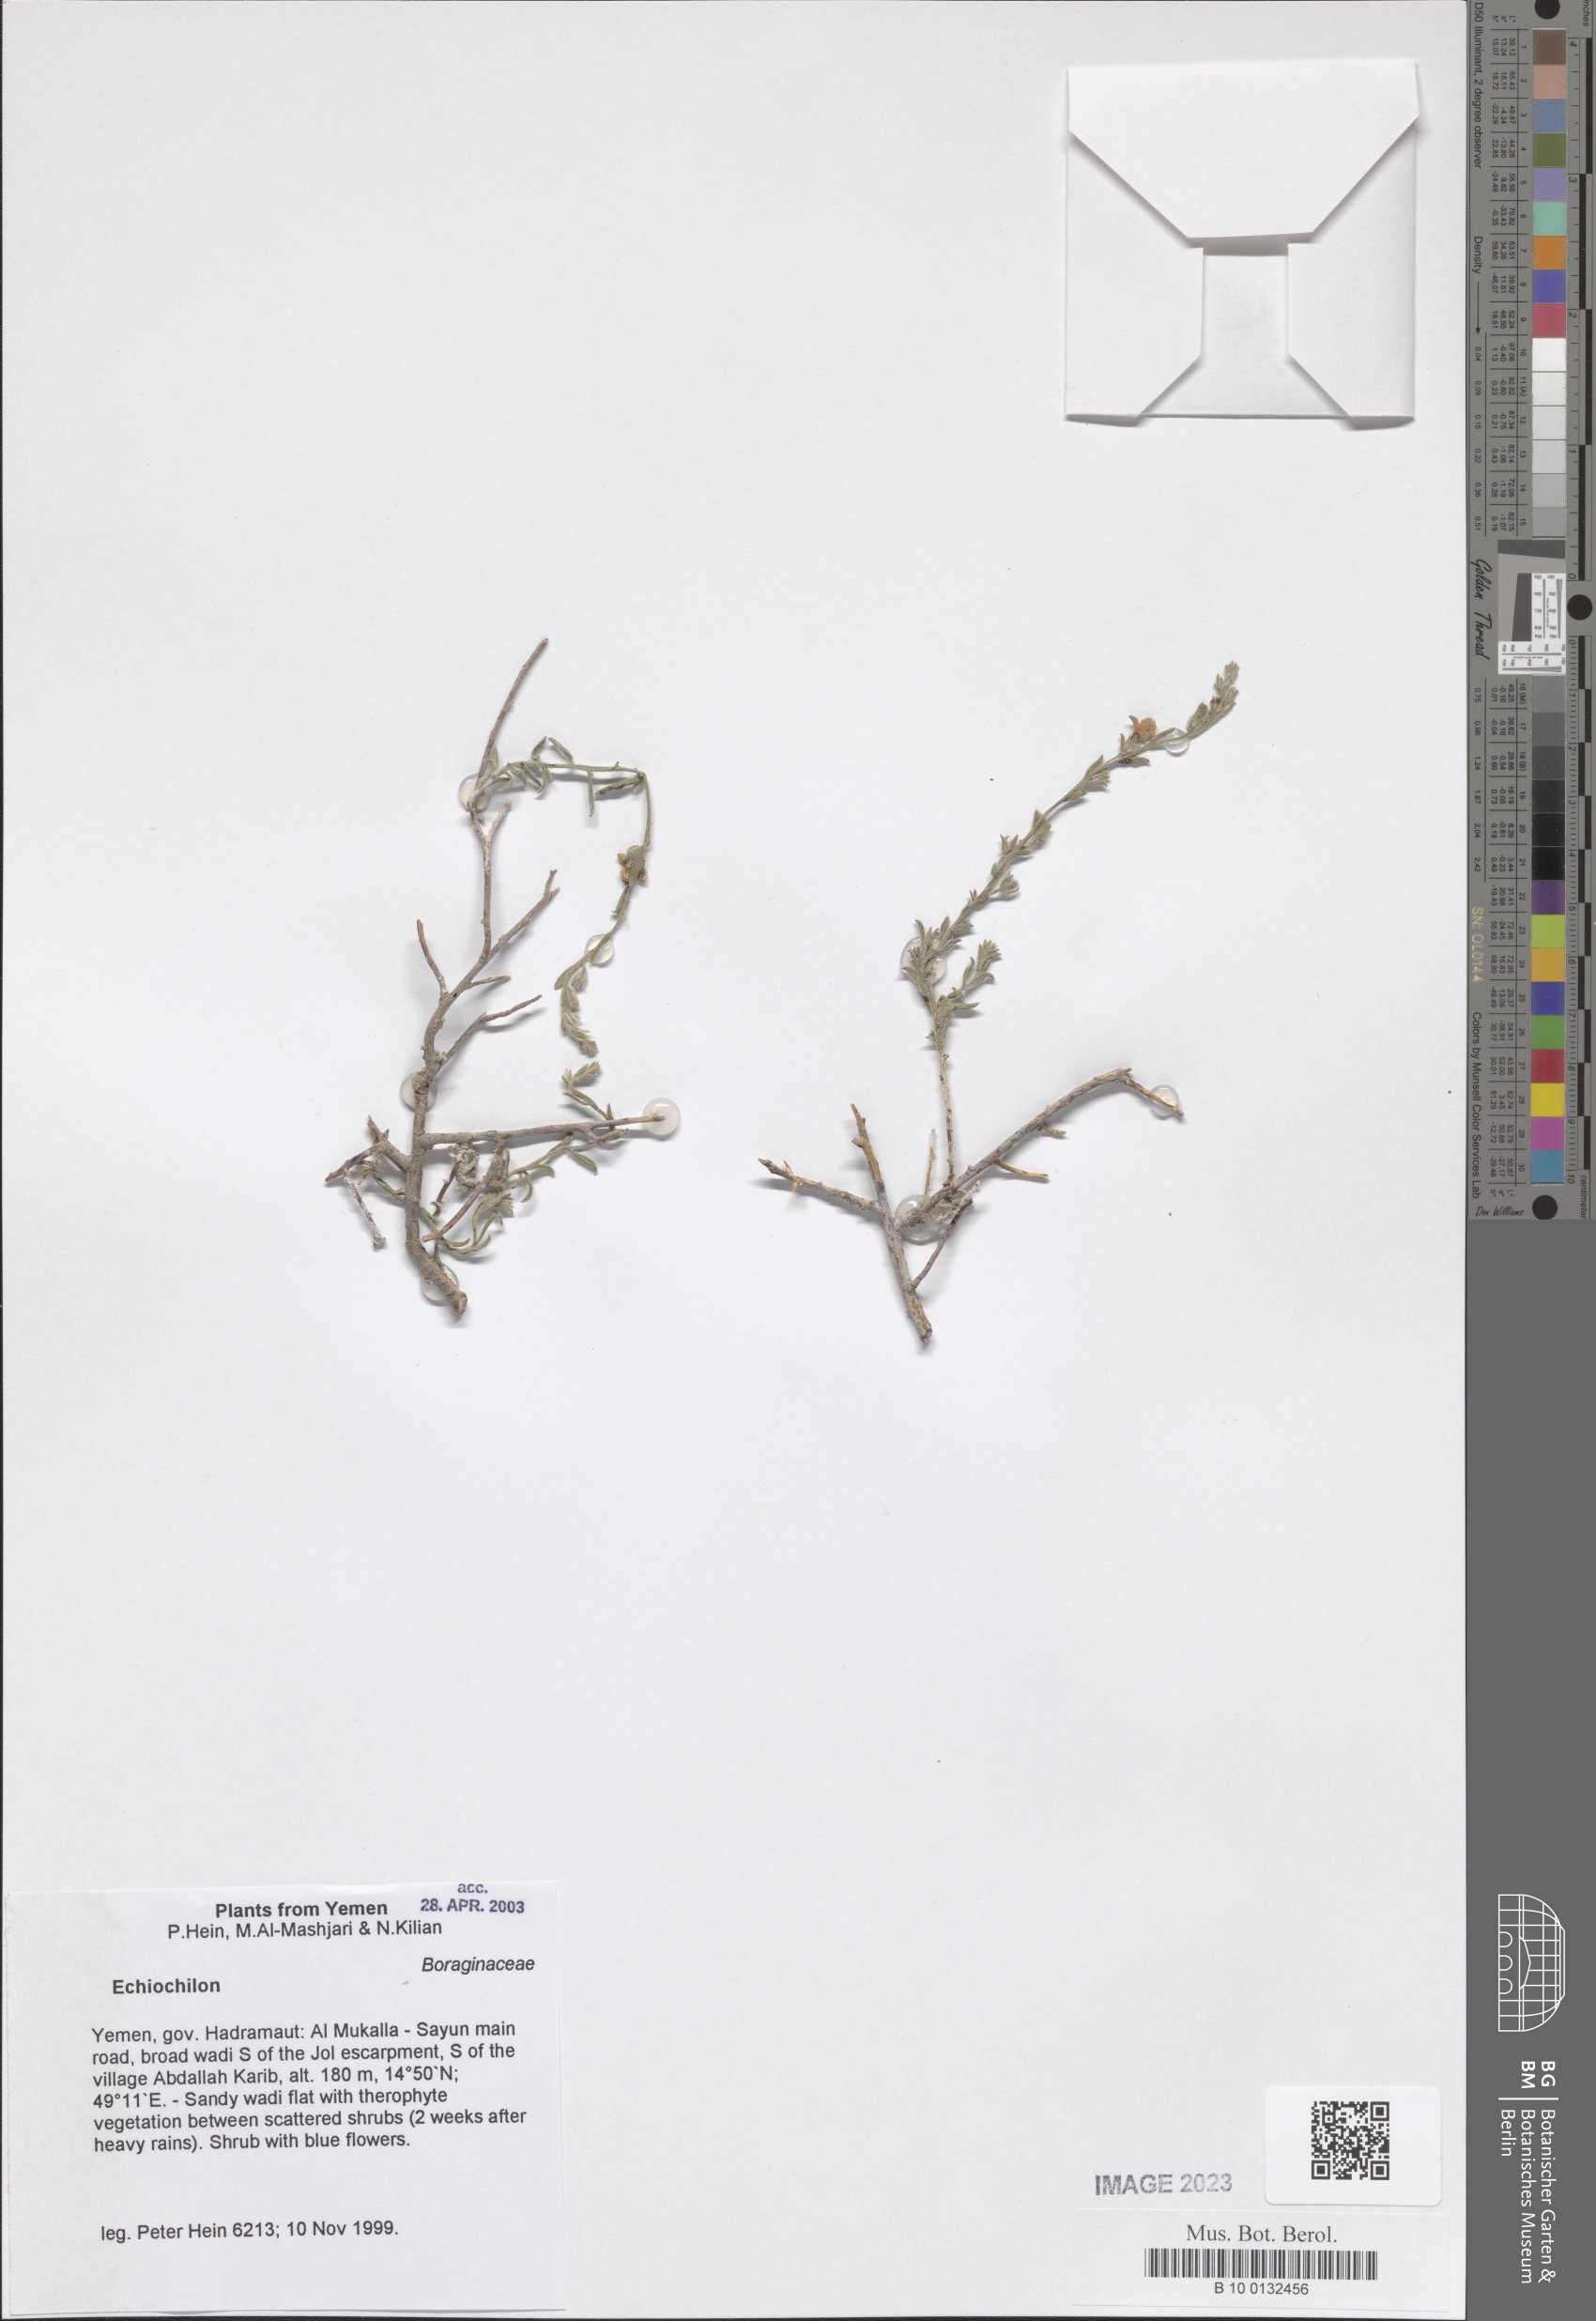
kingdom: Plantae
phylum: Tracheophyta
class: Magnoliopsida
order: Boraginales
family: Boraginaceae
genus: Echiochilon
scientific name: Echiochilon
